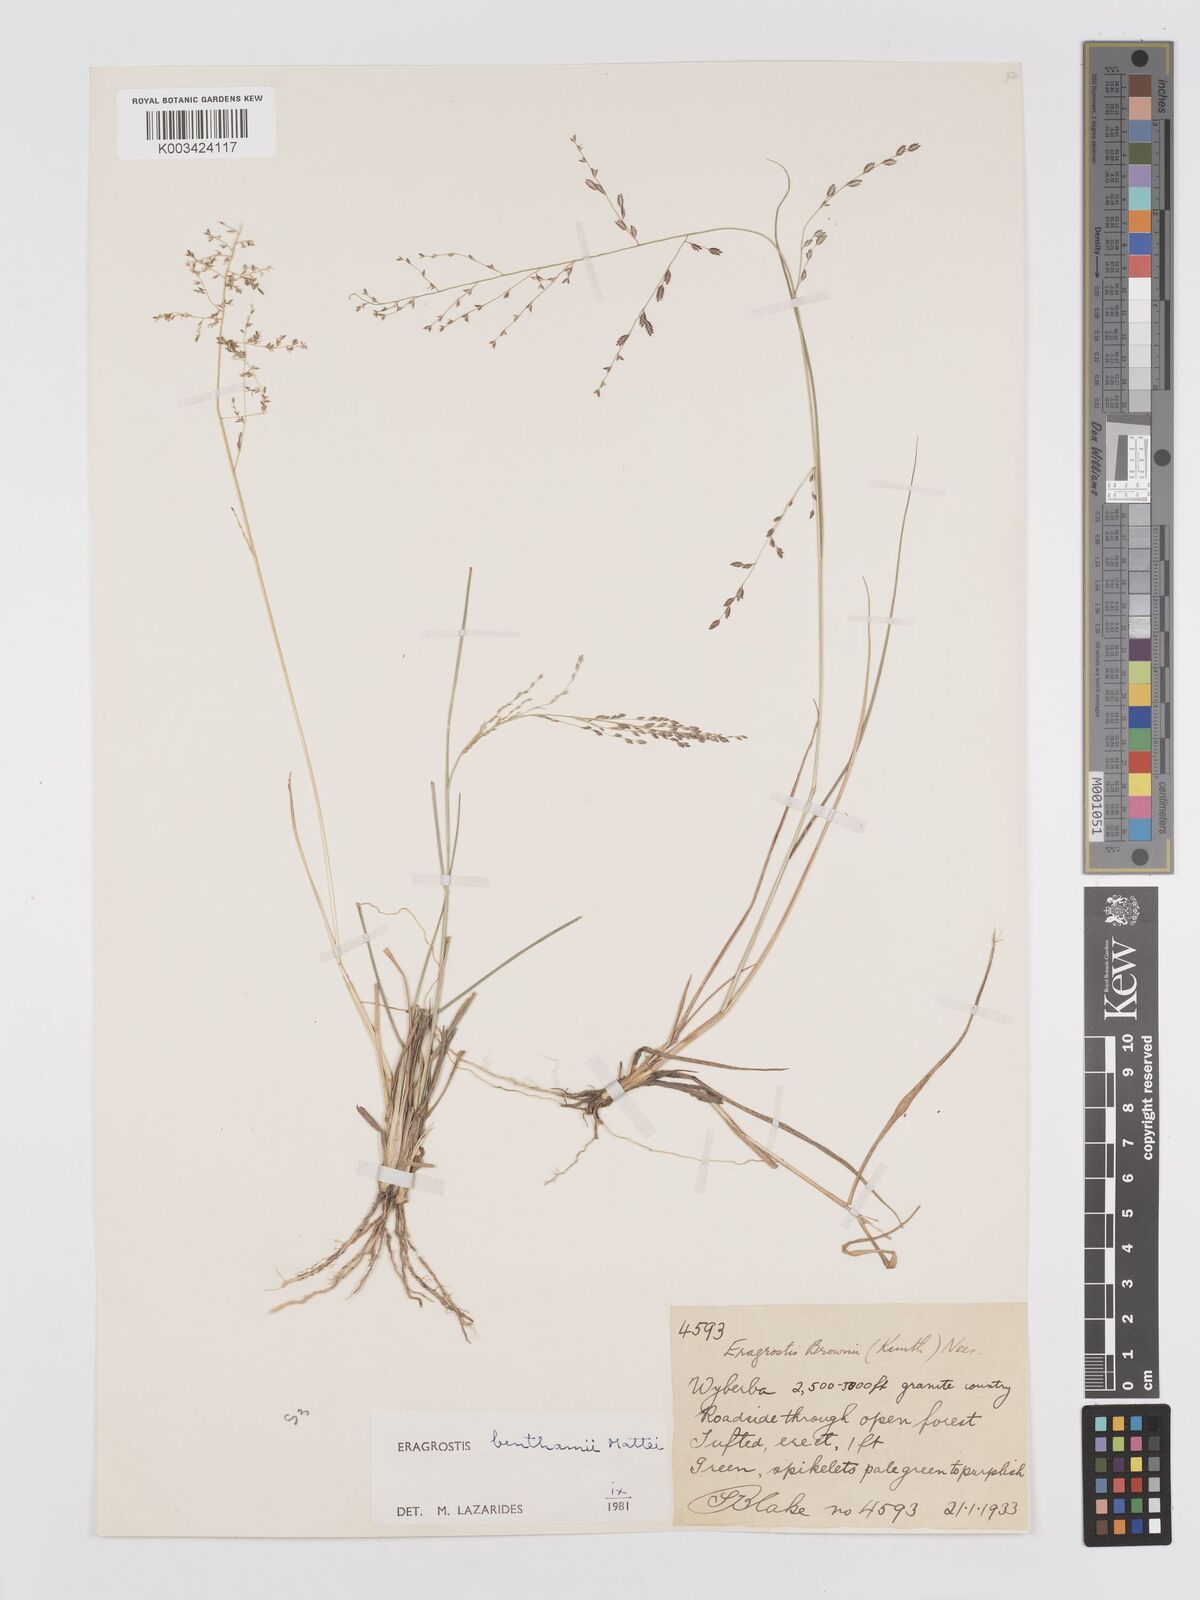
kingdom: Plantae
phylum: Tracheophyta
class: Liliopsida
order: Poales
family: Poaceae
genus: Eragrostis
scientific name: Eragrostis brownii
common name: Lovegrass
